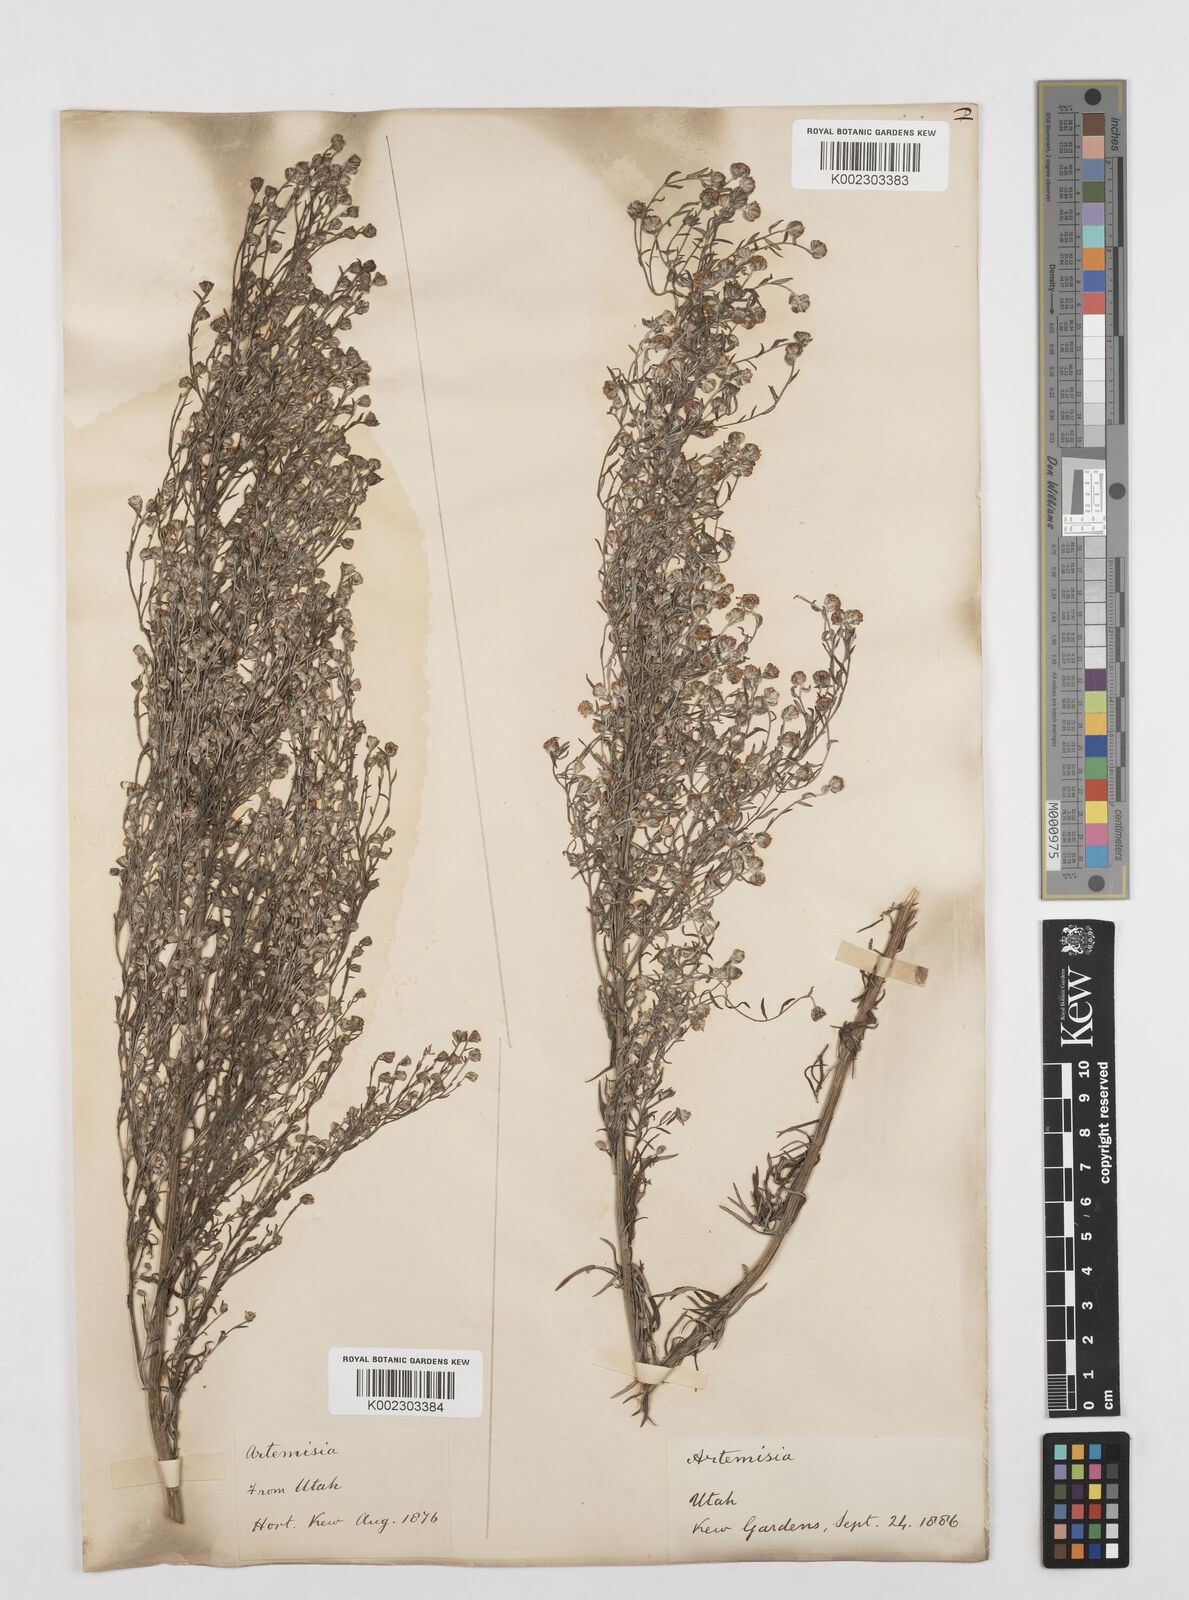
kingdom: Plantae
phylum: Tracheophyta
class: Magnoliopsida
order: Asterales
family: Asteraceae
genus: Artemisia
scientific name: Artemisia
